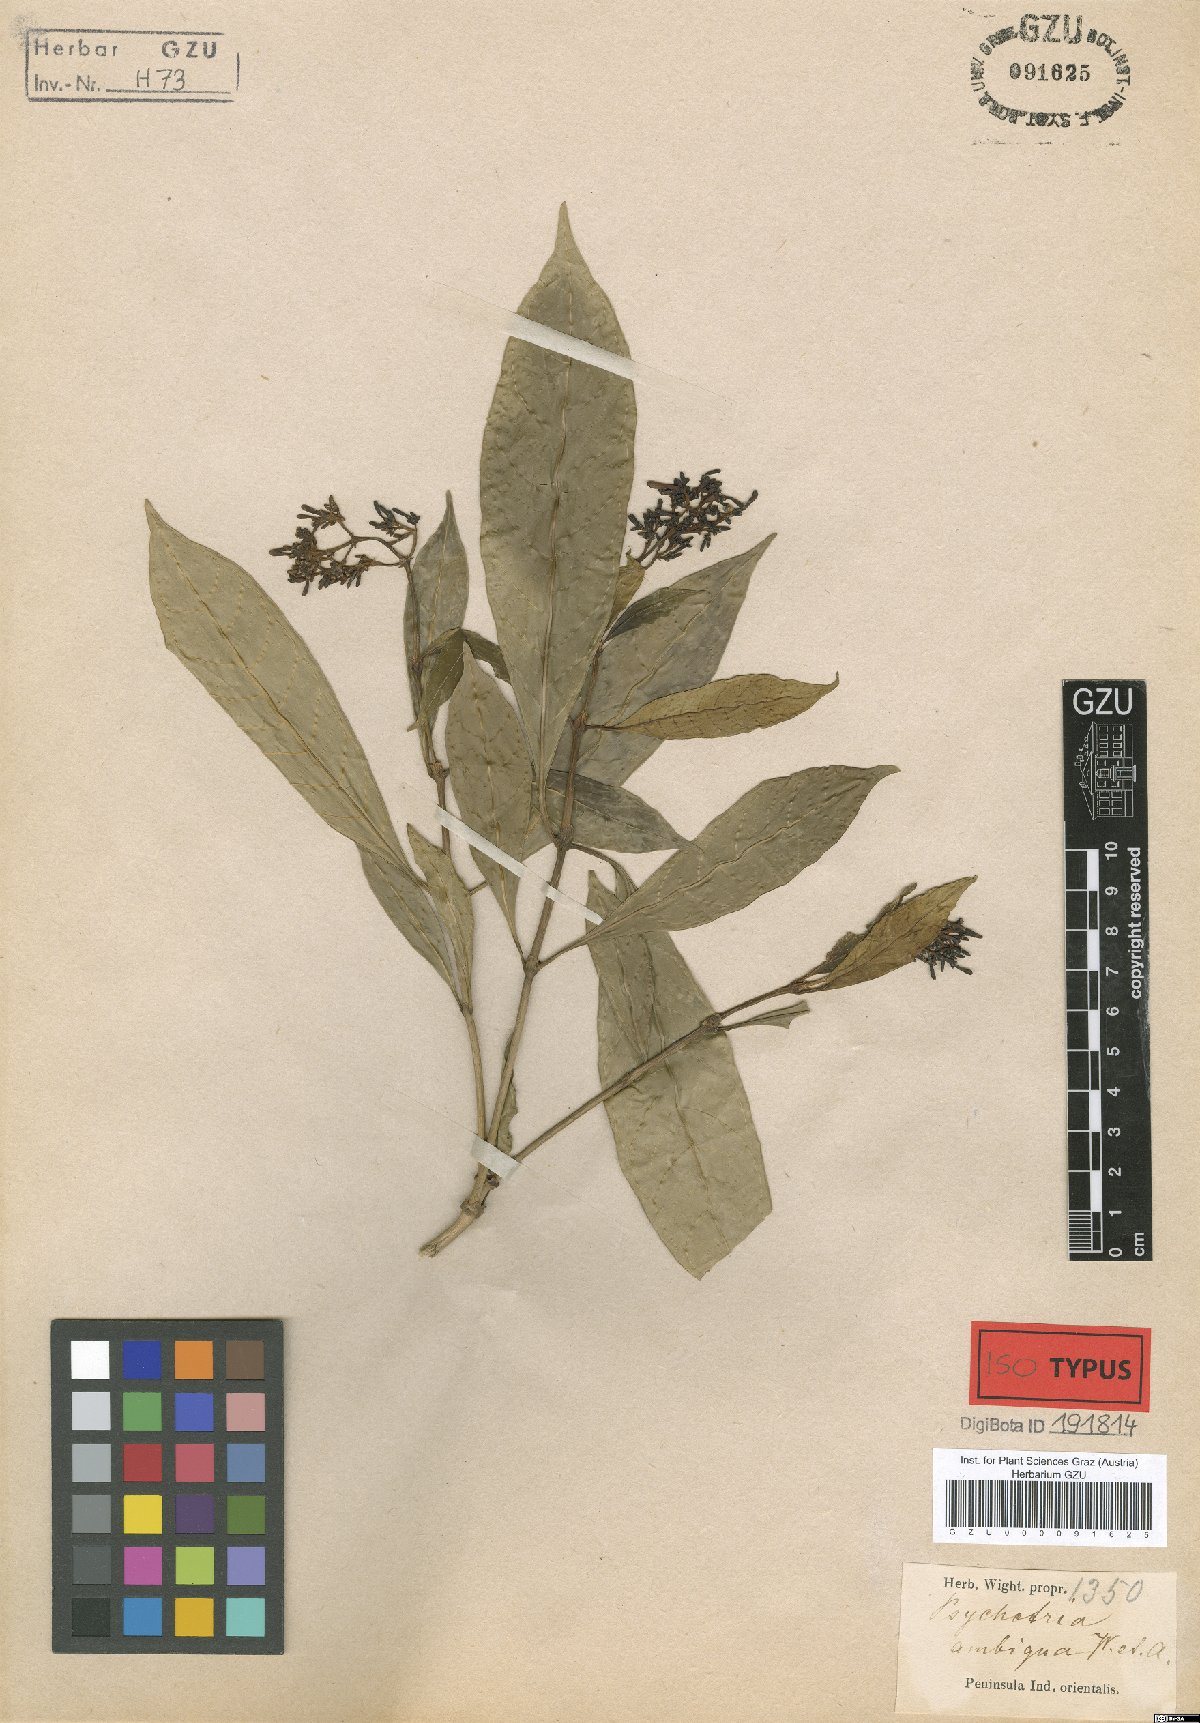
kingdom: Plantae
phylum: Tracheophyta
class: Magnoliopsida
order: Gentianales
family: Rubiaceae
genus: Chassalia
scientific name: Chassalia curviflora
